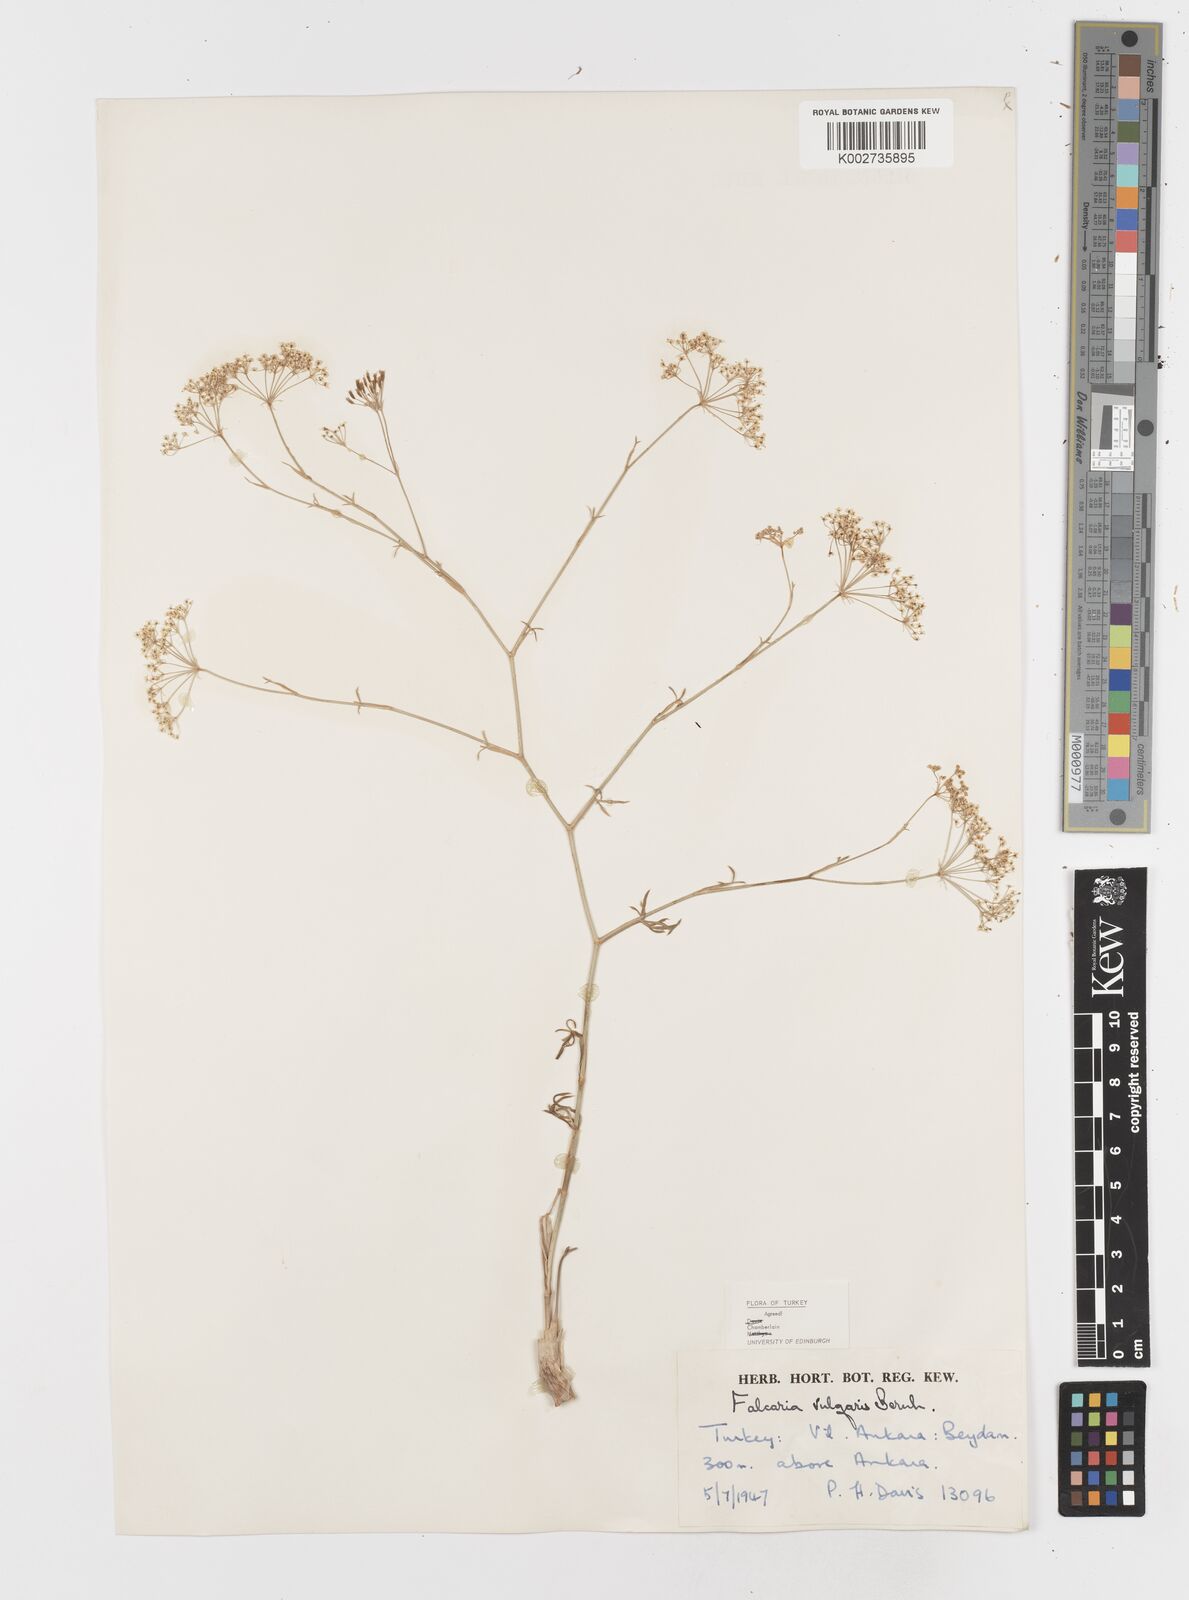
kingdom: Plantae
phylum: Tracheophyta
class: Magnoliopsida
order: Apiales
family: Apiaceae
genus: Falcaria
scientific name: Falcaria vulgaris
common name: Longleaf
